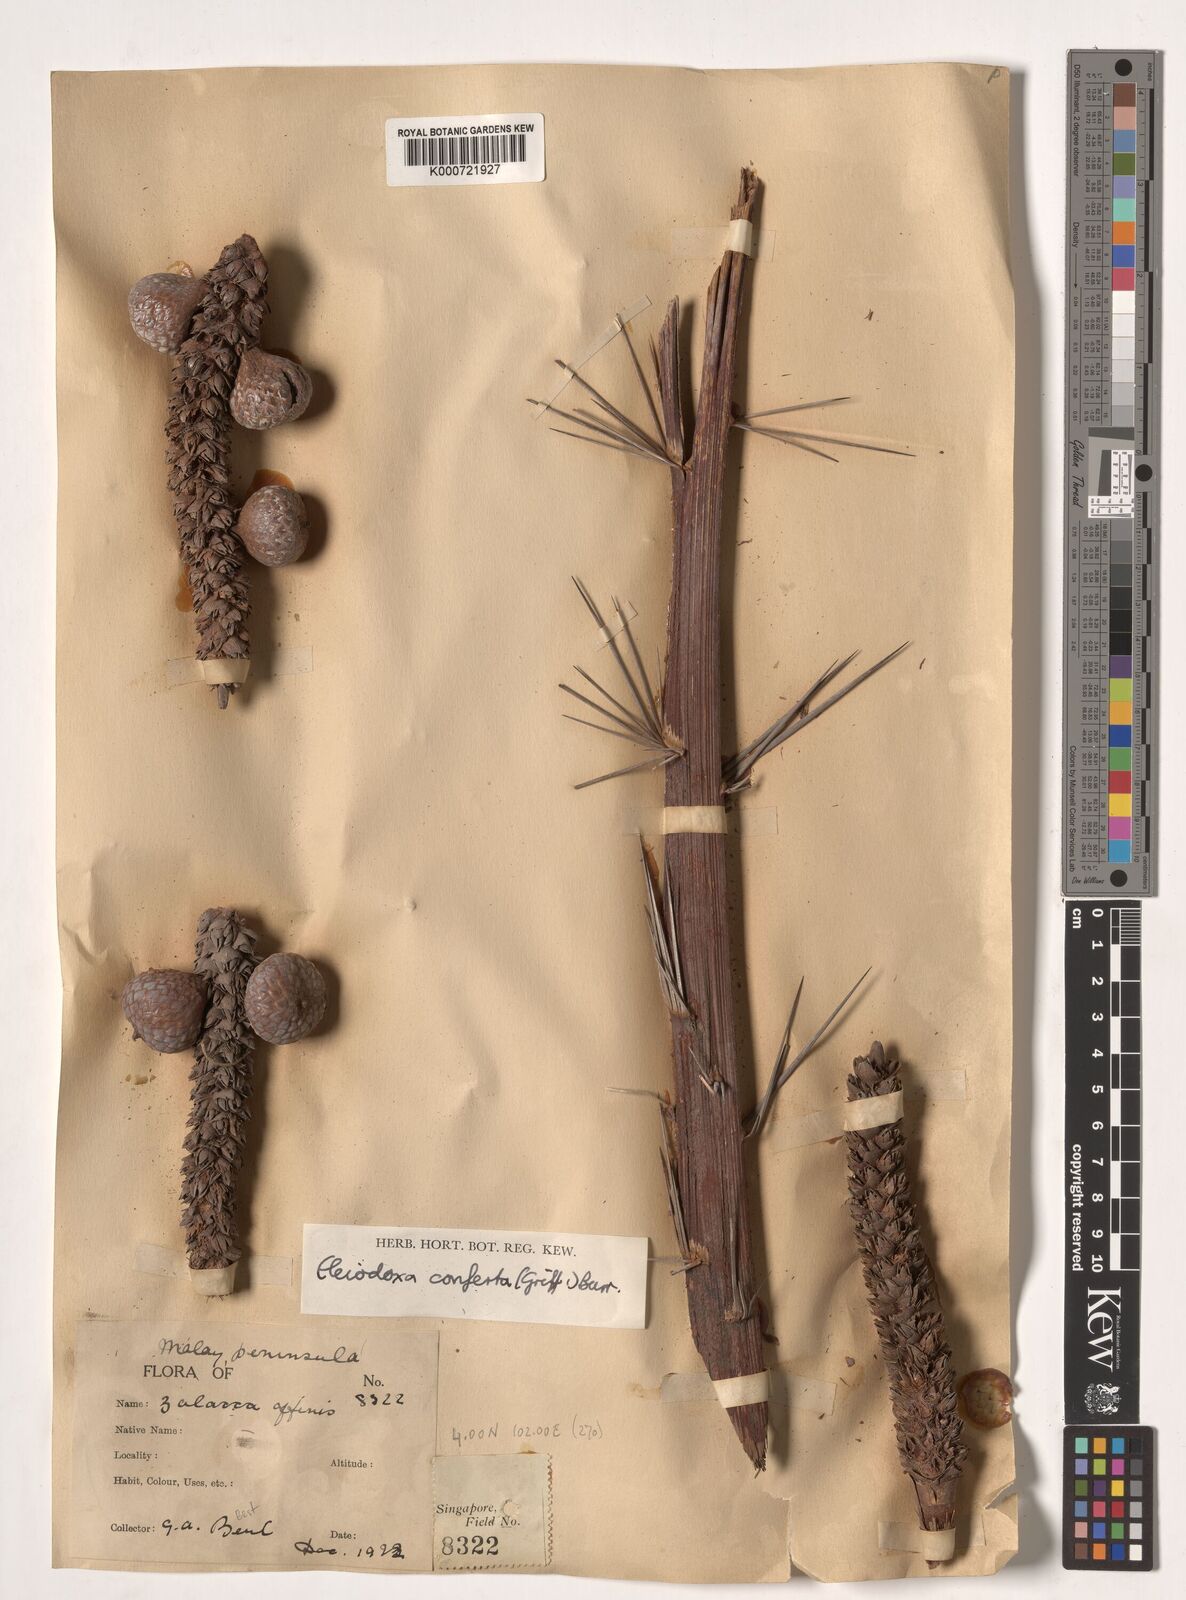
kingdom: Plantae
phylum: Tracheophyta
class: Liliopsida
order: Arecales
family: Arecaceae
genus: Eleiodoxa
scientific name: Eleiodoxa conferta
